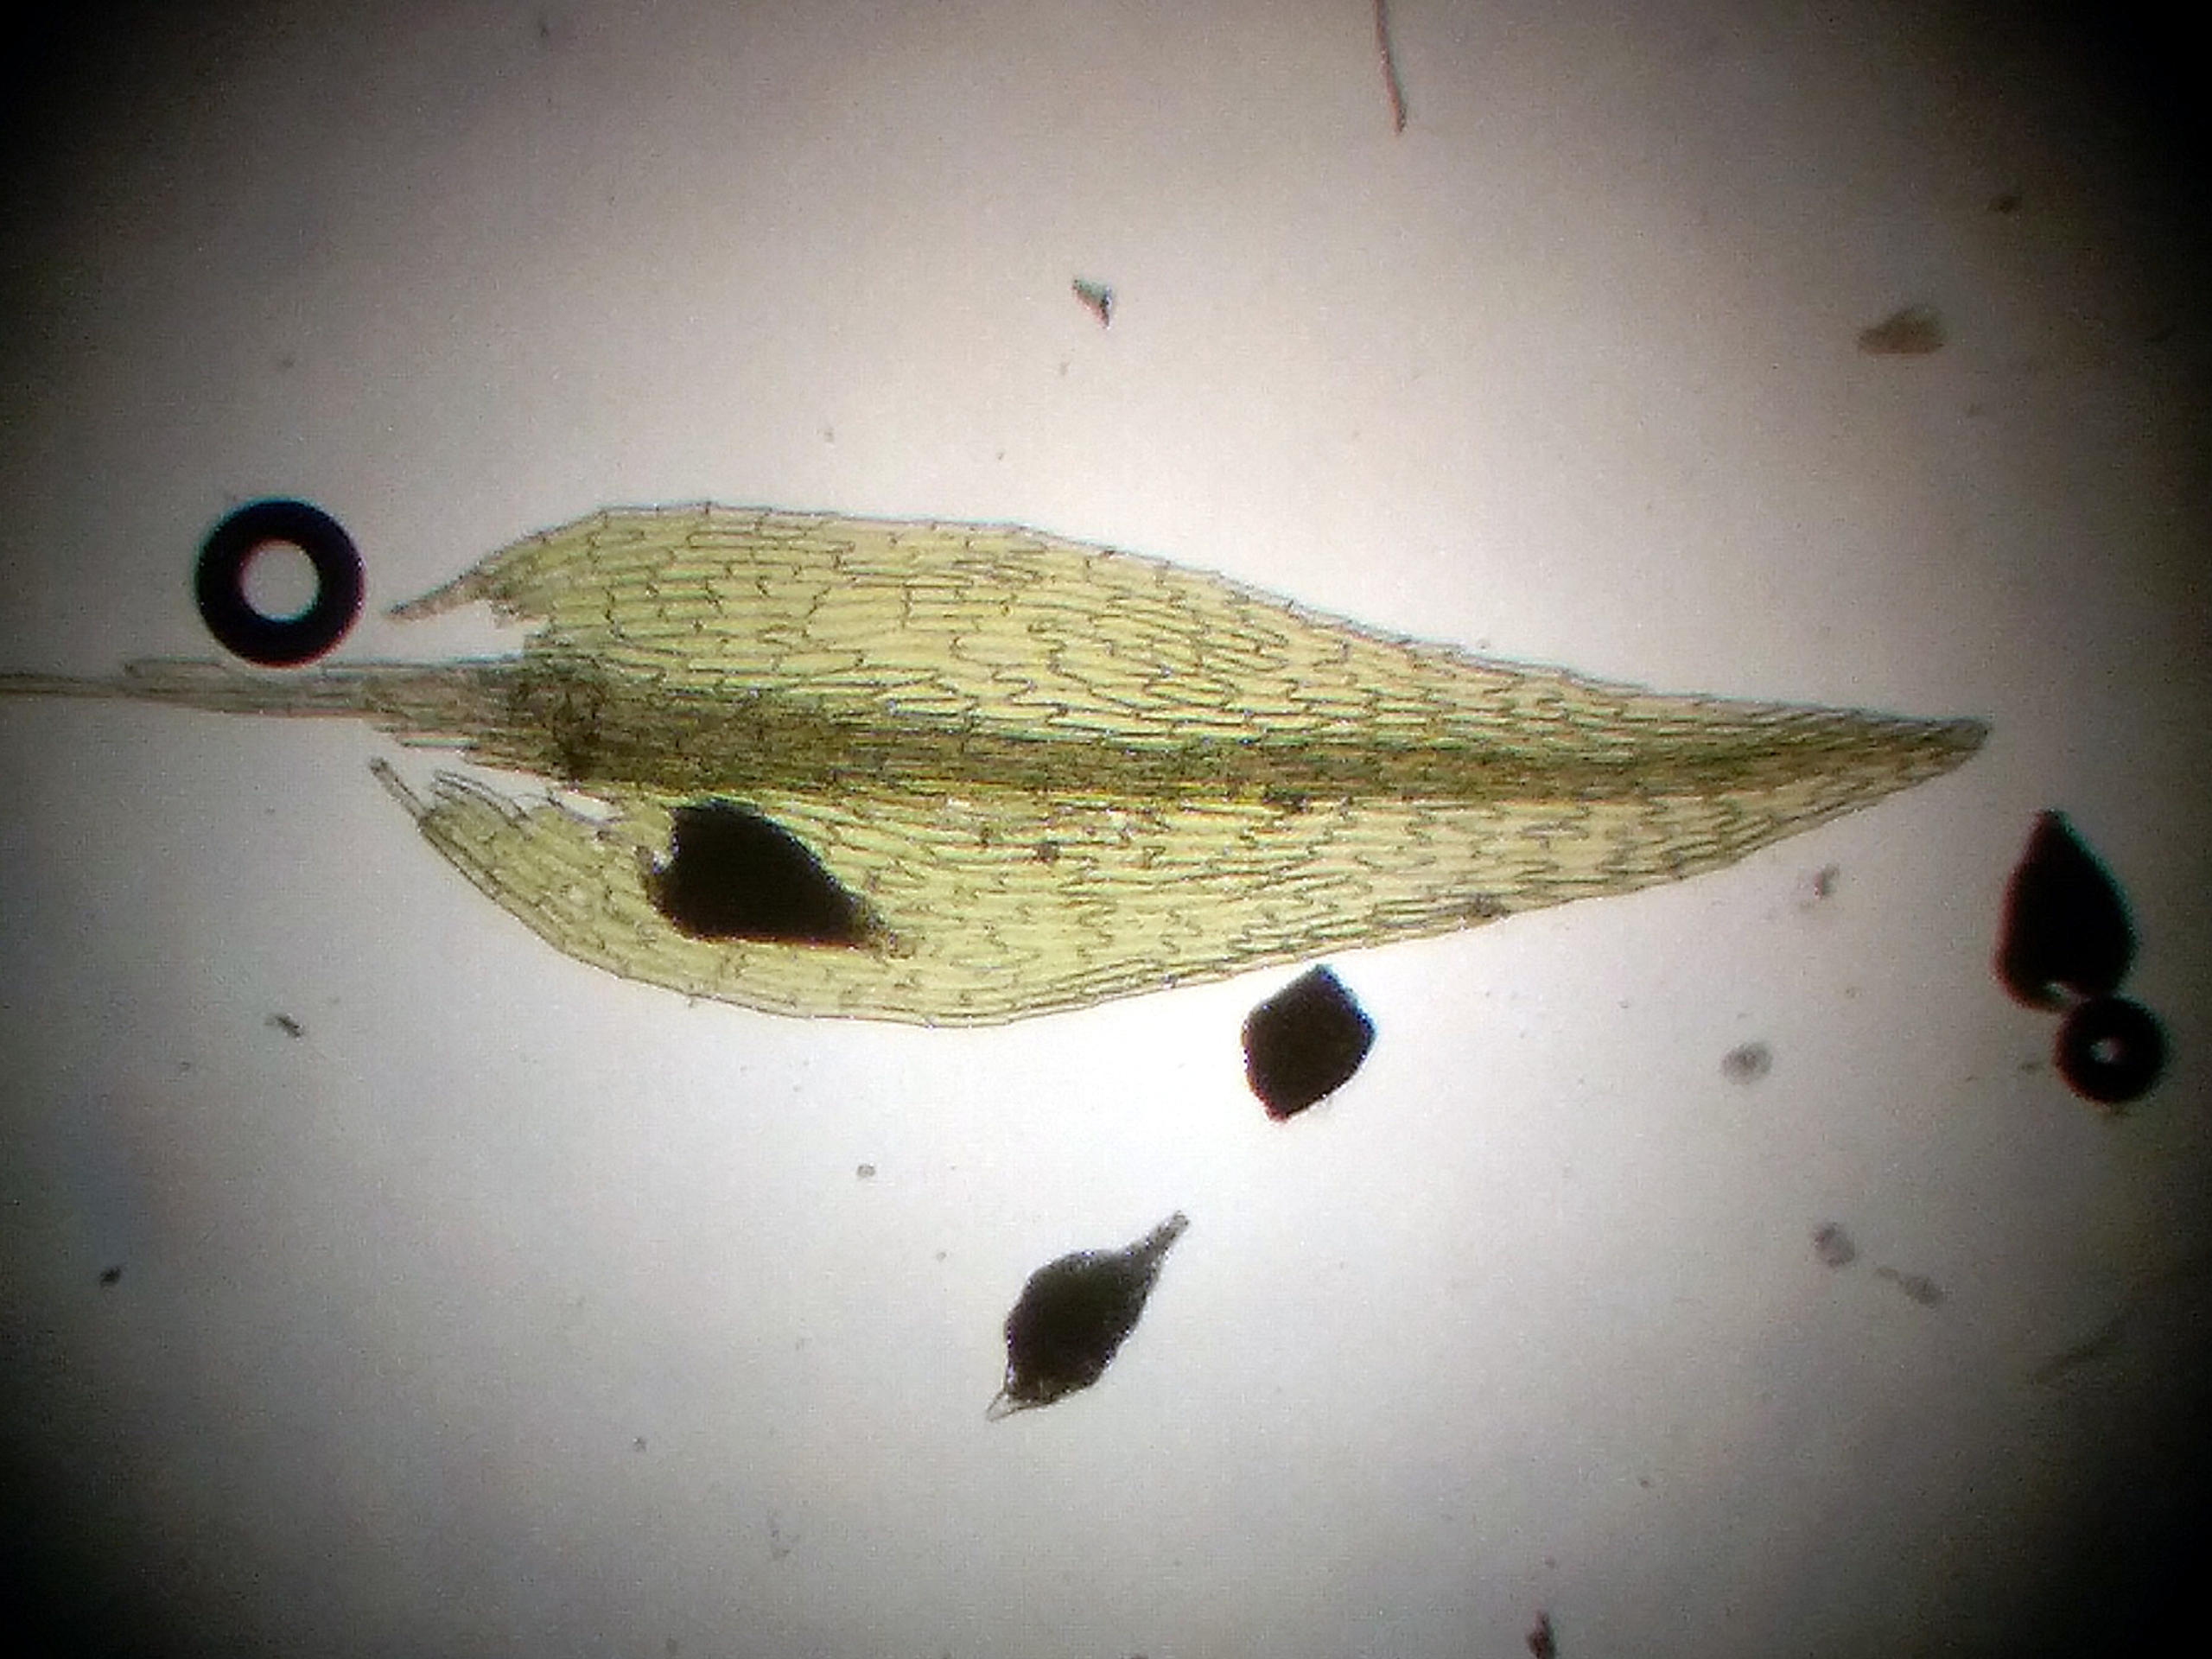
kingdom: Plantae
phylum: Bryophyta
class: Bryopsida
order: Bryales
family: Mniaceae
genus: Pohlia
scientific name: Pohlia camptotrachela
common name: Fin nikkemos
